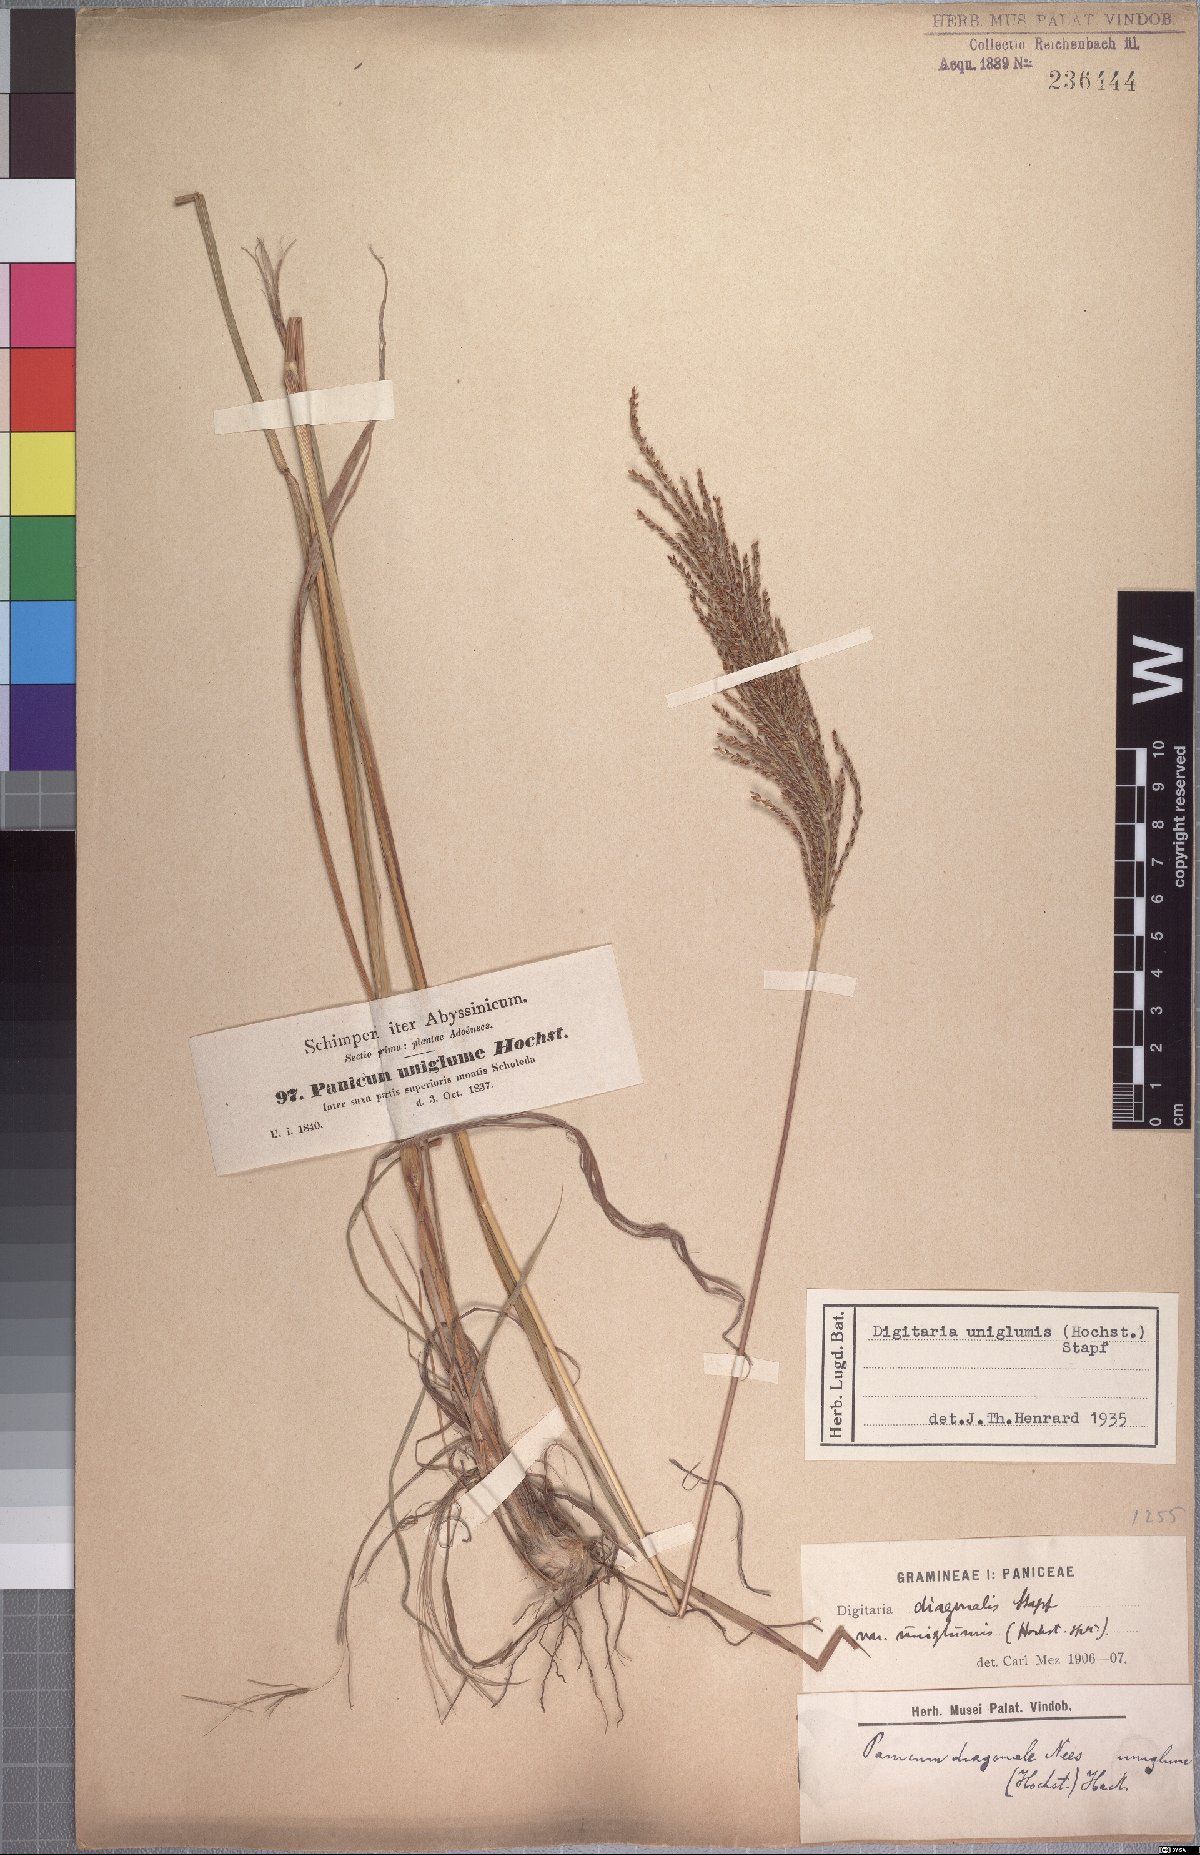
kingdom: Plantae
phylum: Tracheophyta
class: Liliopsida
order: Poales
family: Poaceae
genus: Digitaria
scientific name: Digitaria diagonalis
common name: Brown-seed finger grass
